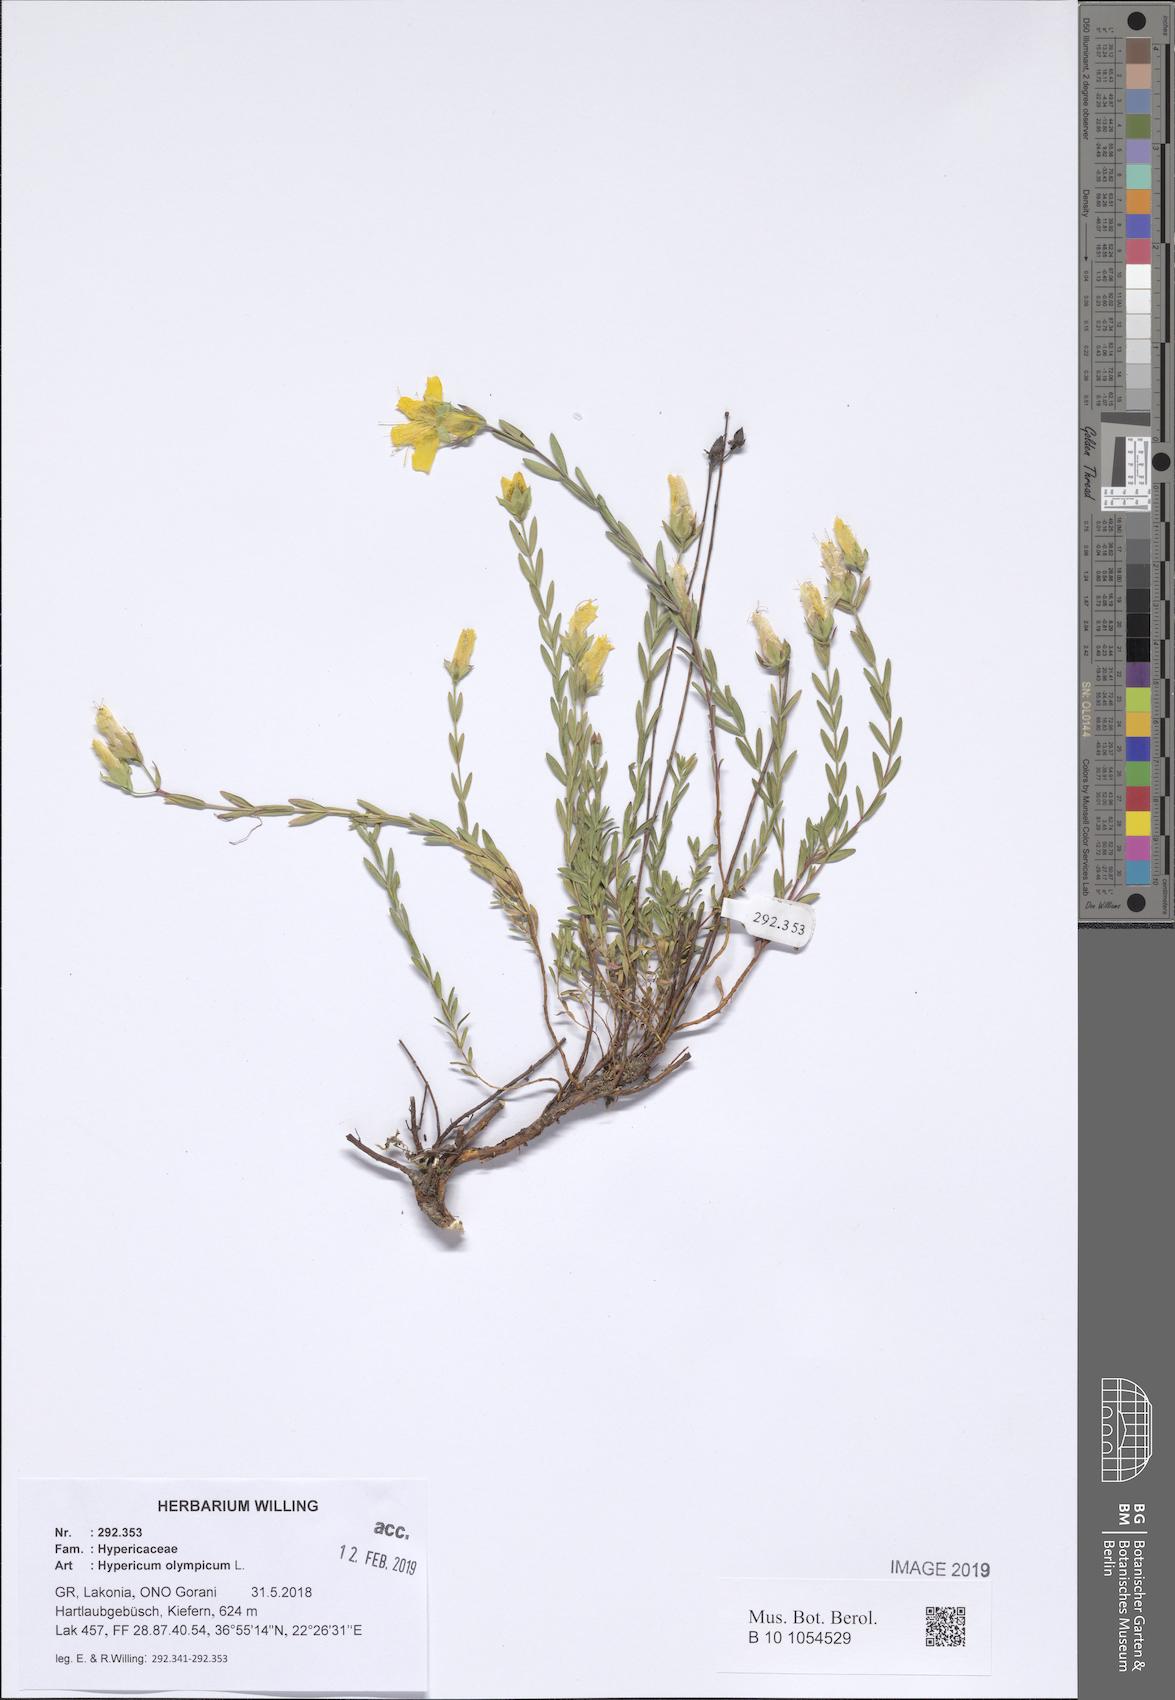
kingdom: Plantae
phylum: Tracheophyta
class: Magnoliopsida
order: Malpighiales
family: Hypericaceae
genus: Hypericum
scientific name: Hypericum olympicum
